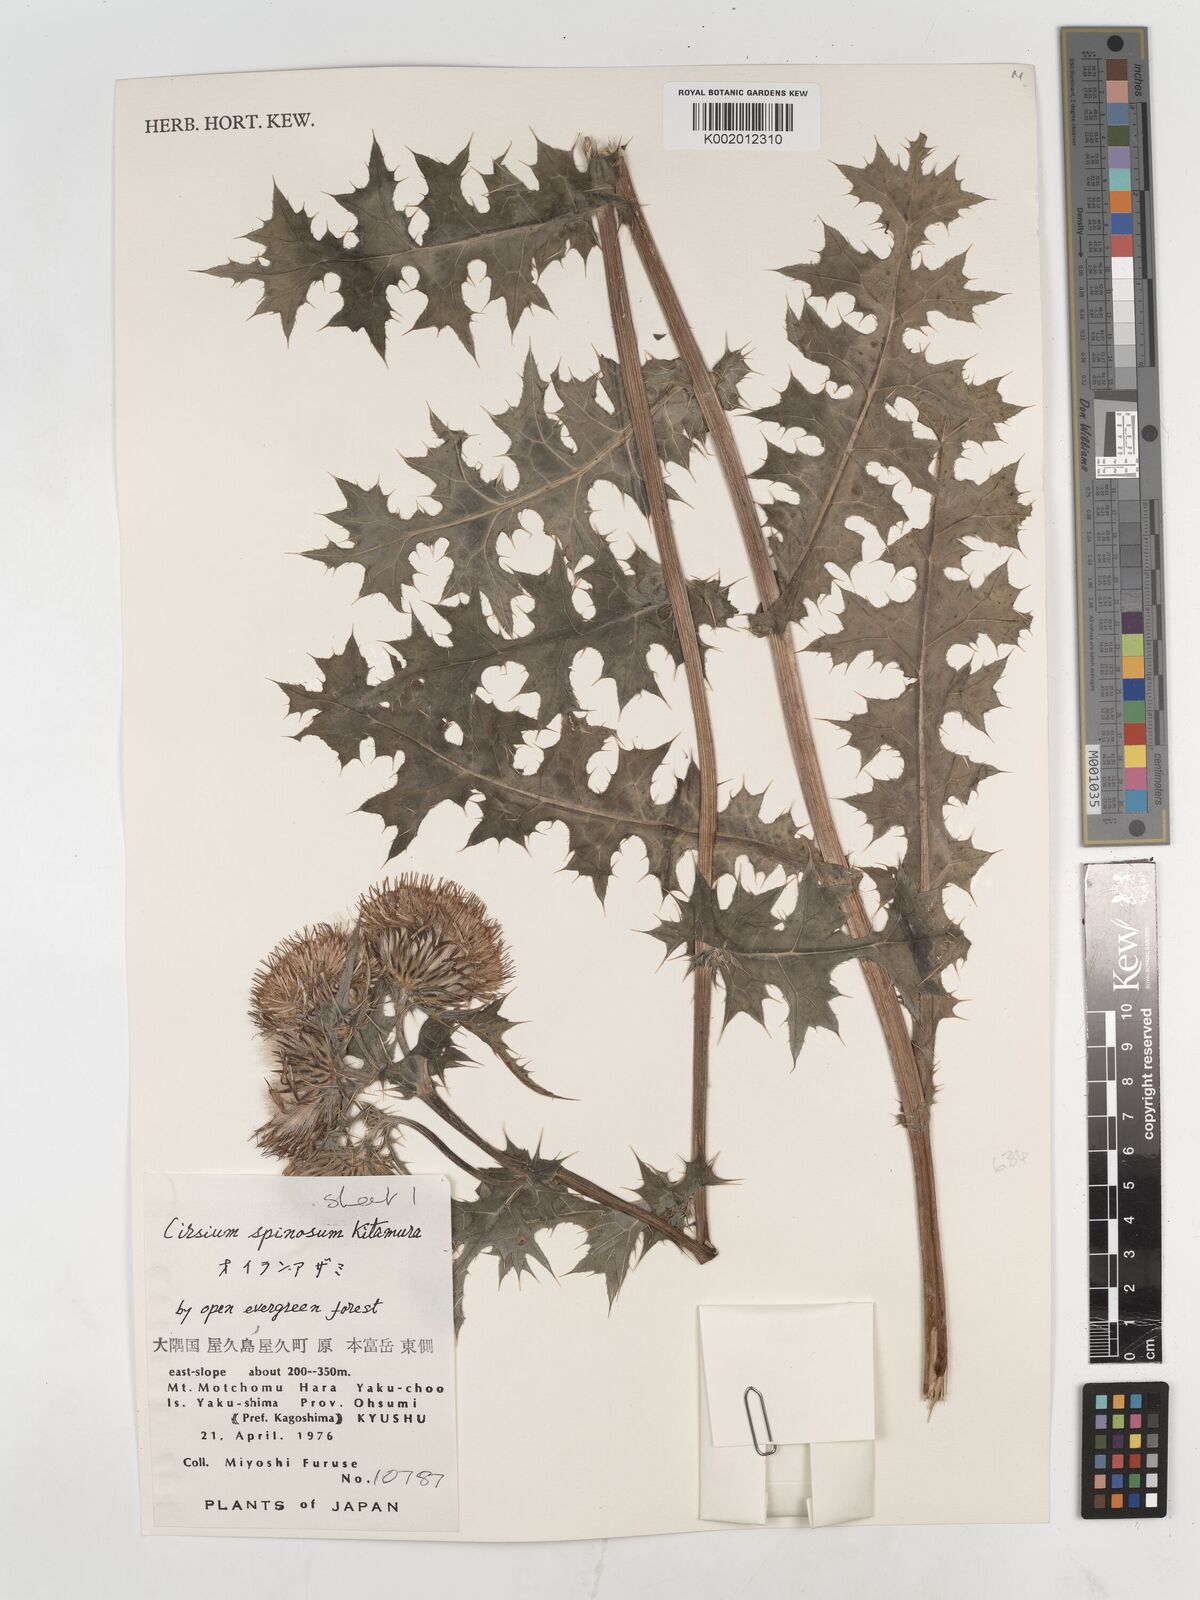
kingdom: Plantae
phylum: Tracheophyta
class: Magnoliopsida
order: Asterales
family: Asteraceae
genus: Cirsium
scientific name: Cirsium spinosum
